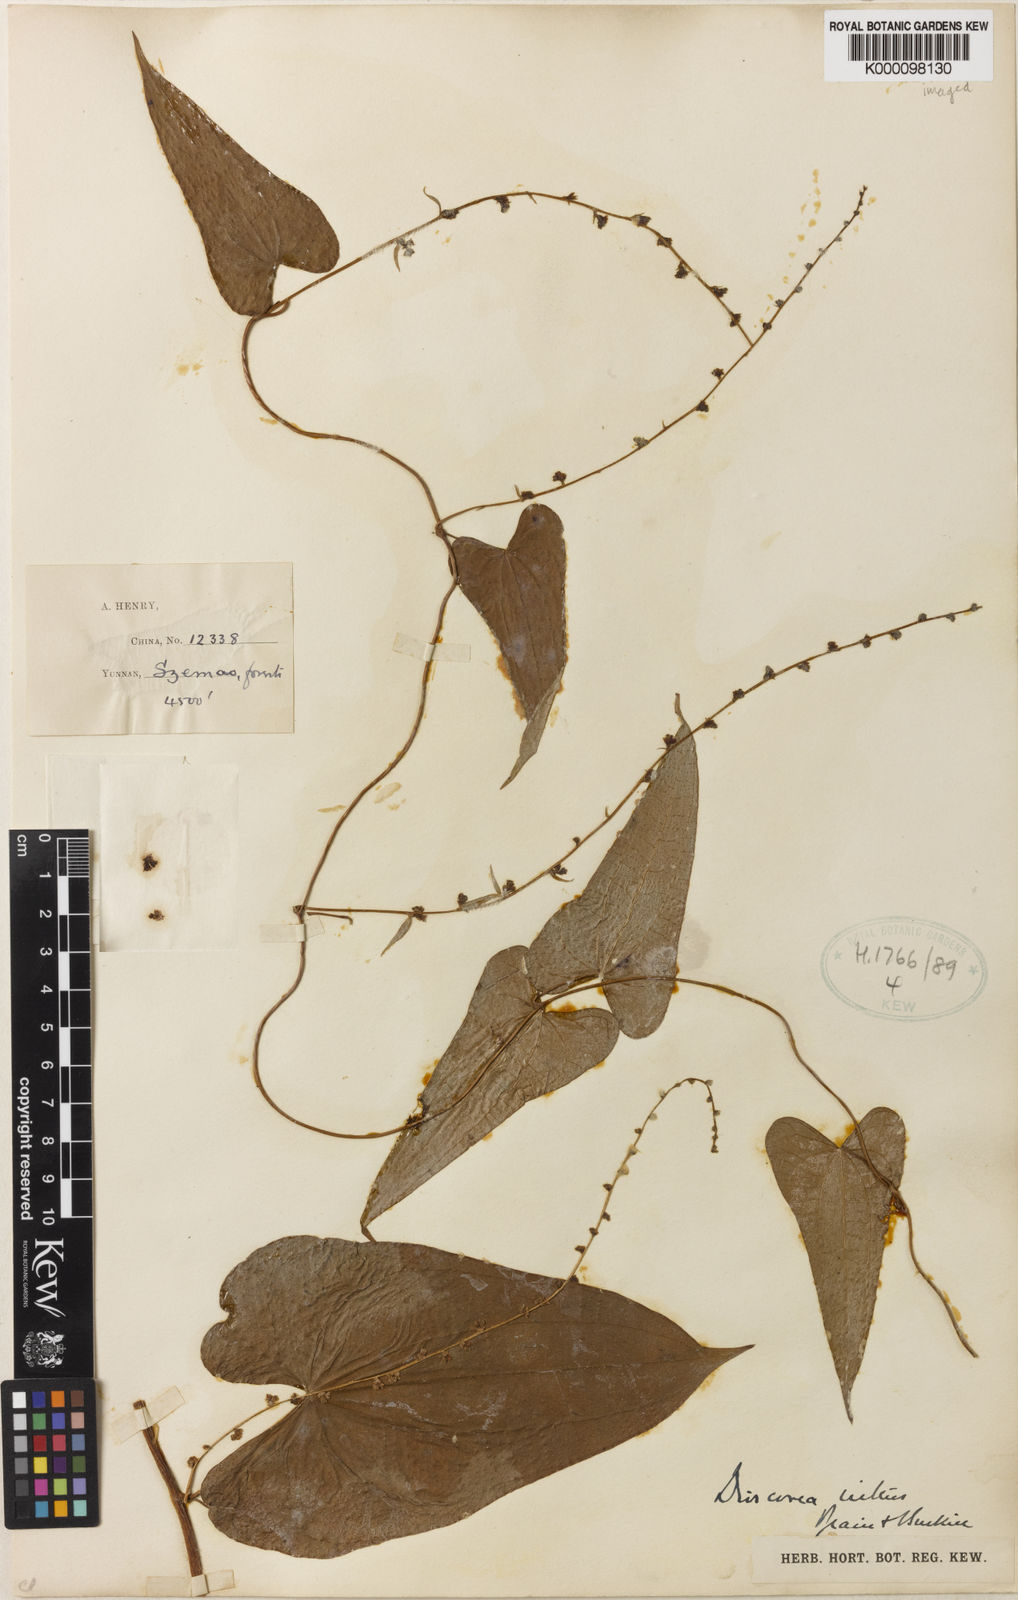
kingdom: Plantae
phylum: Tracheophyta
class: Liliopsida
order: Dioscoreales
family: Dioscoreaceae
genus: Dioscorea
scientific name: Dioscorea nitens
